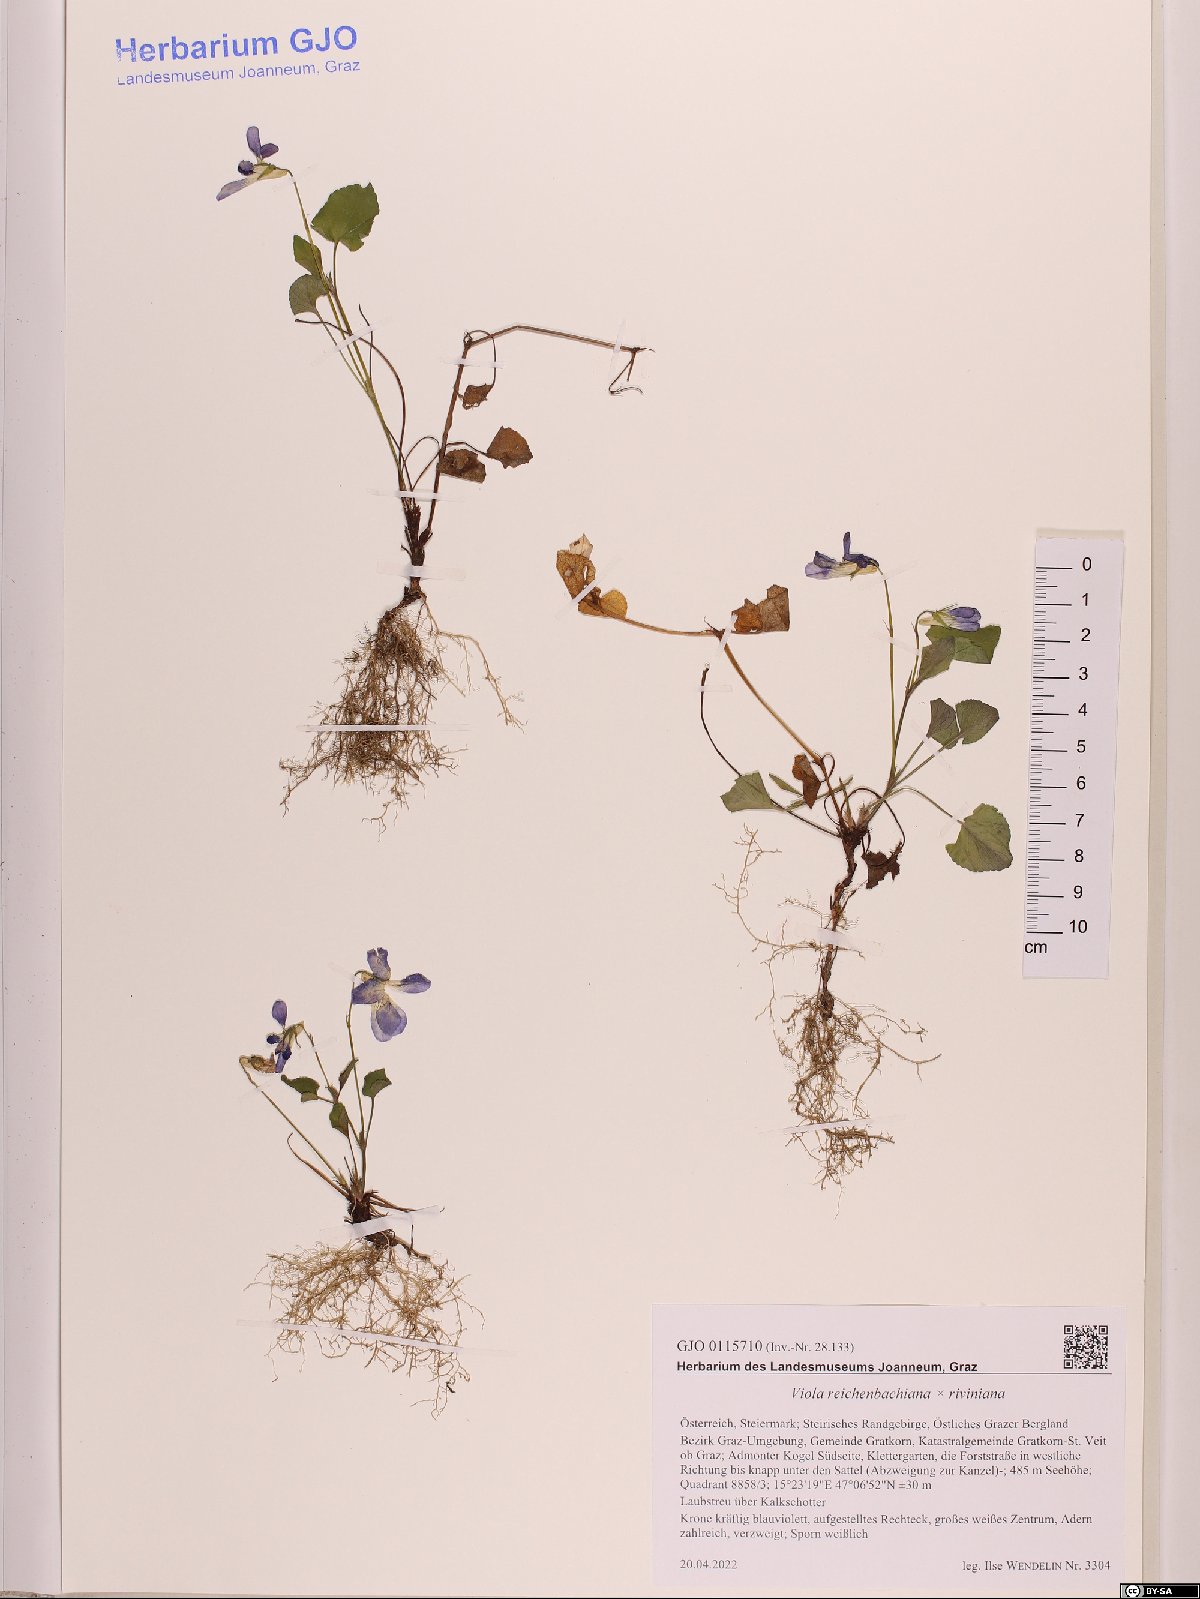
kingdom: Plantae
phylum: Tracheophyta
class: Magnoliopsida
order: Malpighiales
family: Violaceae
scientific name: Violaceae
